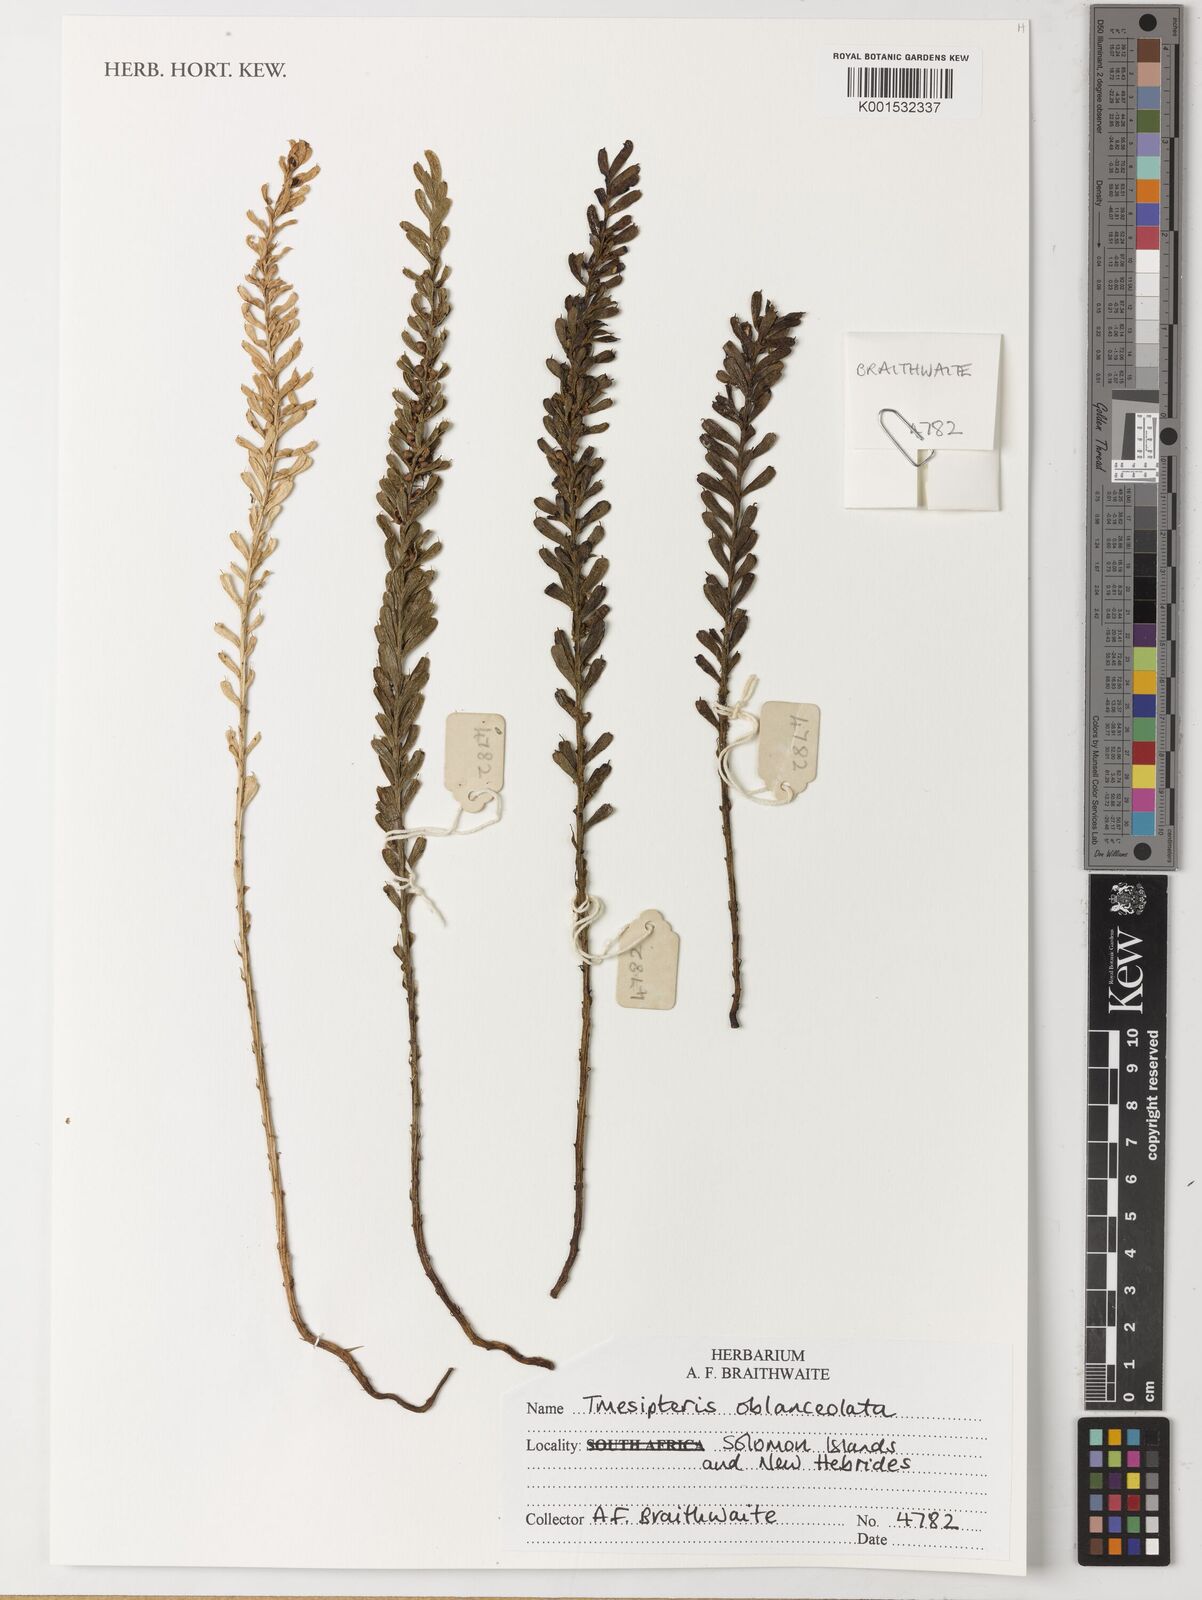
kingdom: Plantae
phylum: Tracheophyta
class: Polypodiopsida
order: Psilotales
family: Psilotaceae
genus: Tmesipteris
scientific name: Tmesipteris truncata
